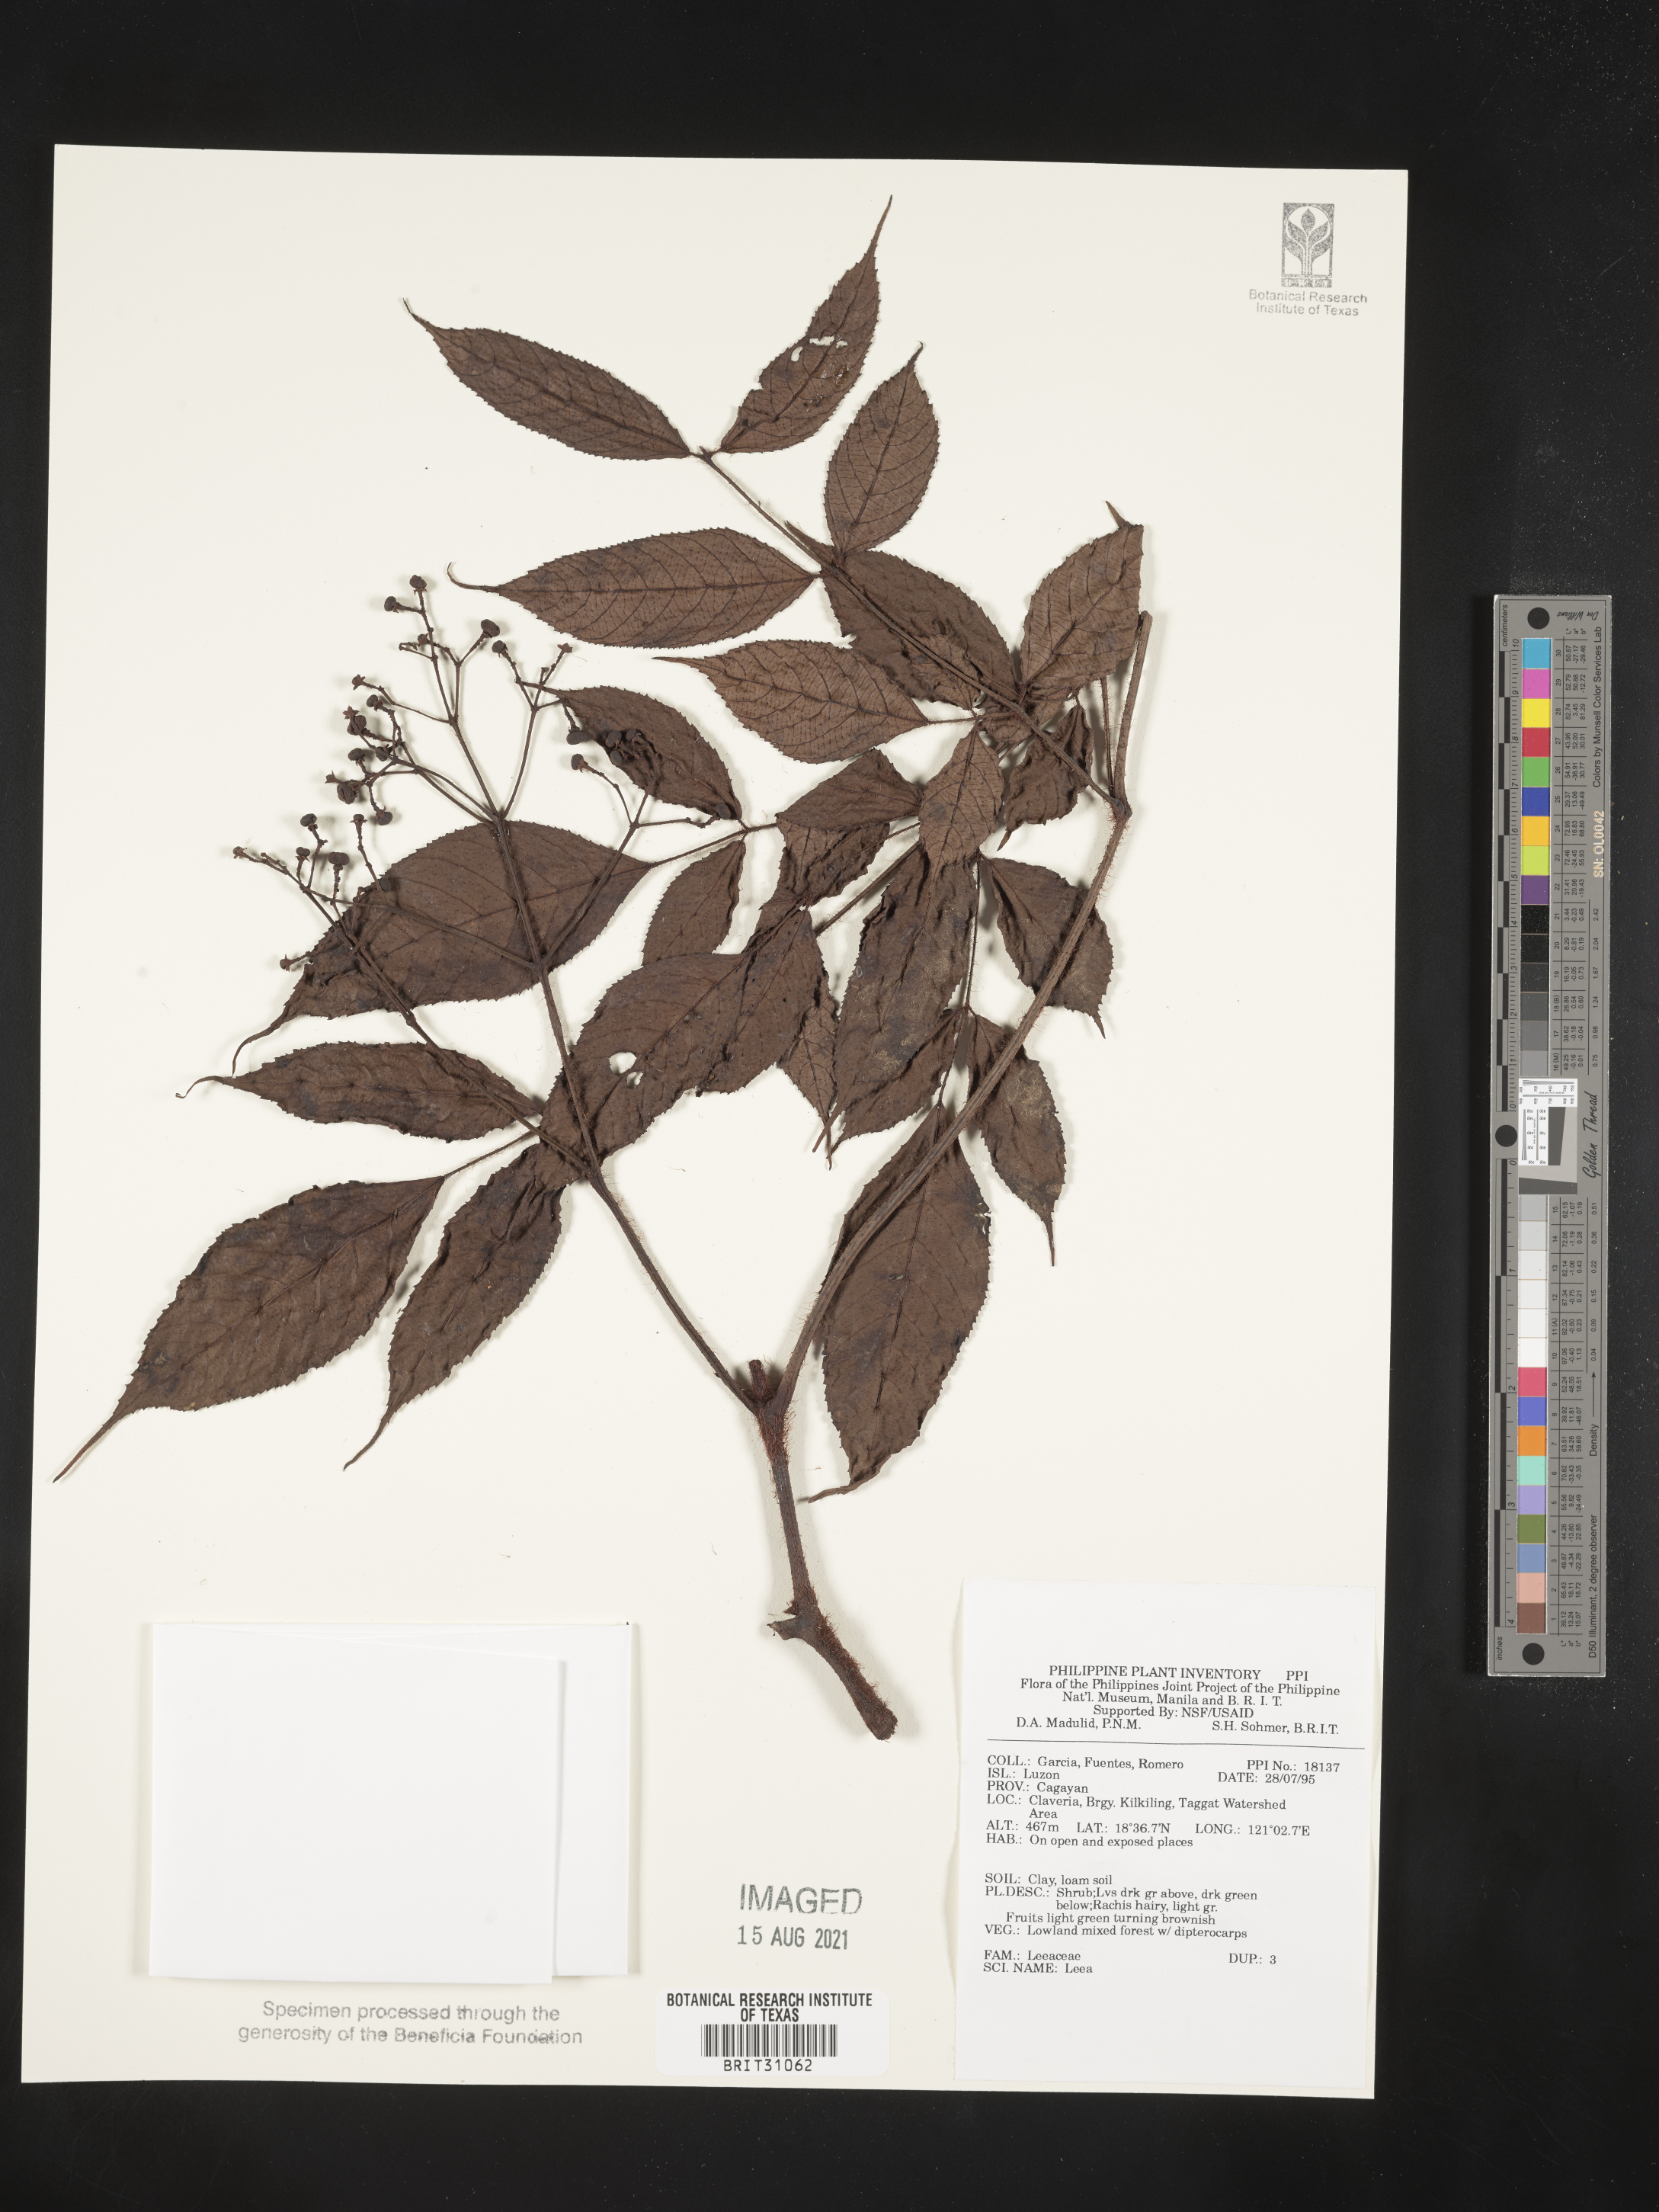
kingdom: Plantae
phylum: Tracheophyta
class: Magnoliopsida
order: Vitales
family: Vitaceae
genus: Leea
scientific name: Leea
